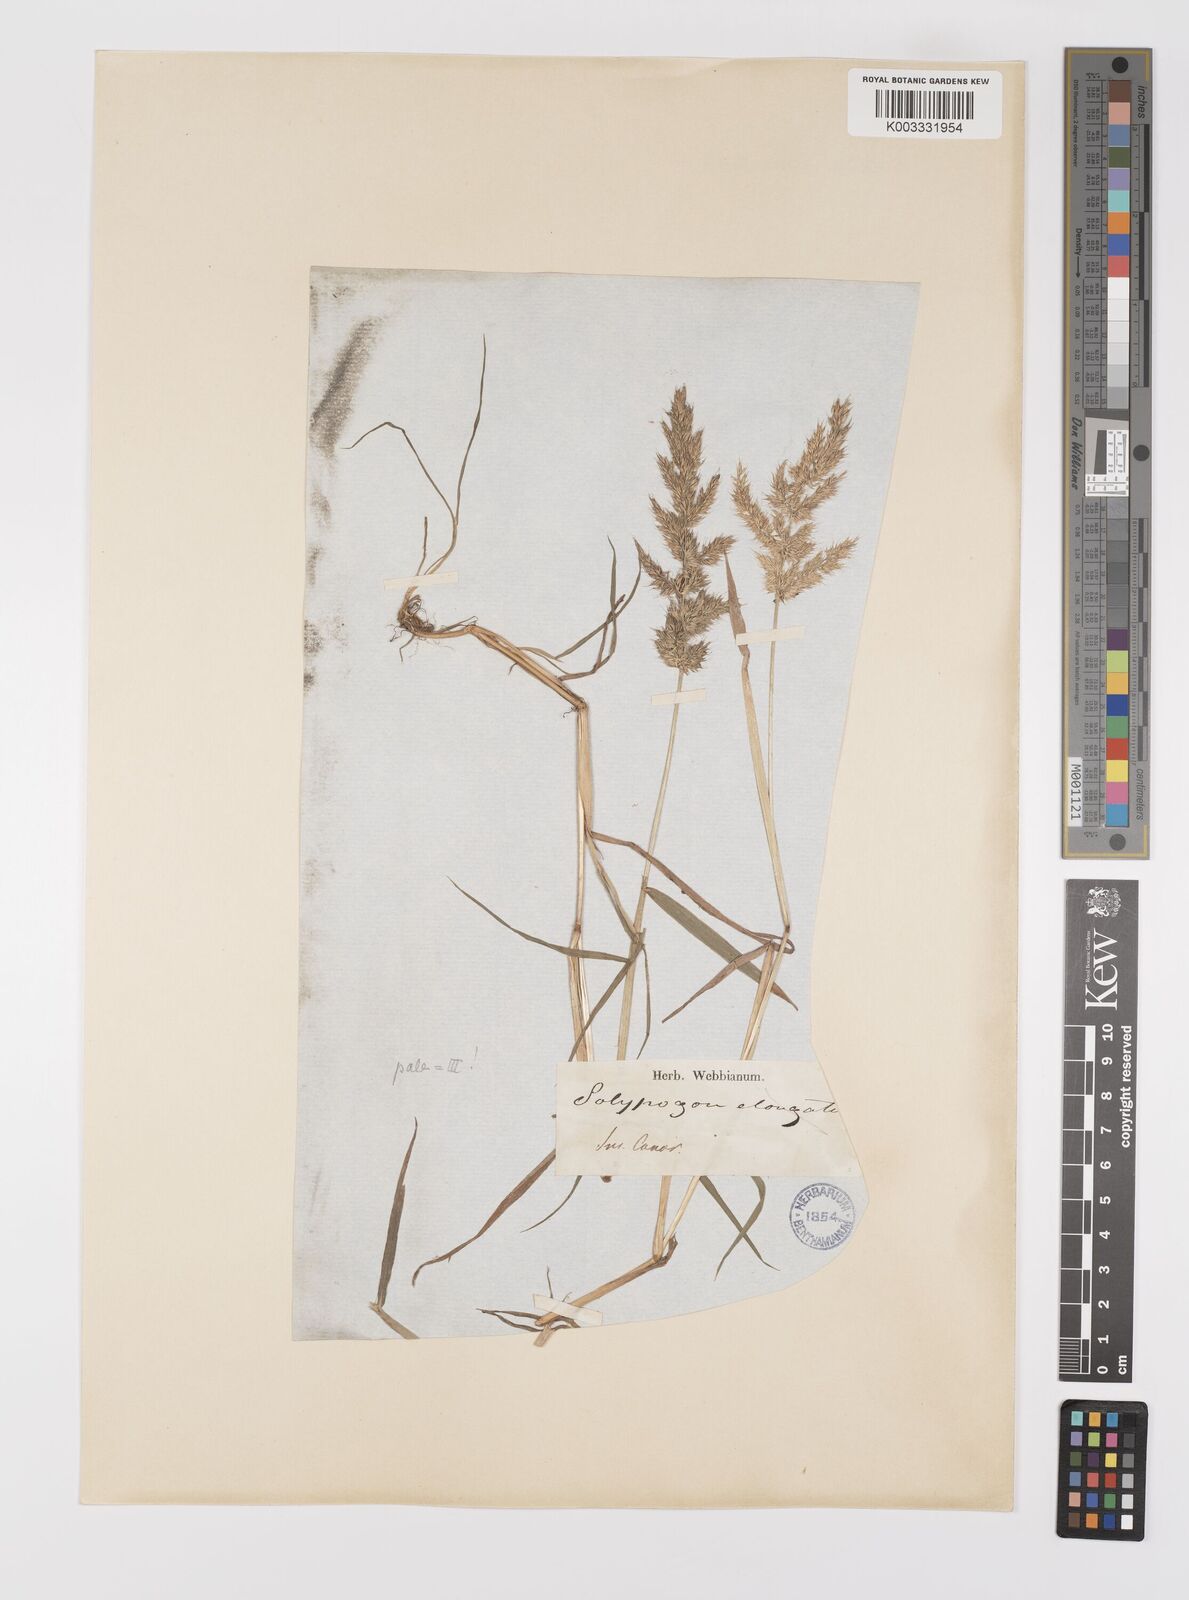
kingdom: Plantae
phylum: Tracheophyta
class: Liliopsida
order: Poales
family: Poaceae
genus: Polypogon
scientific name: Polypogon fugax
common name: Asia minor bluegrass
